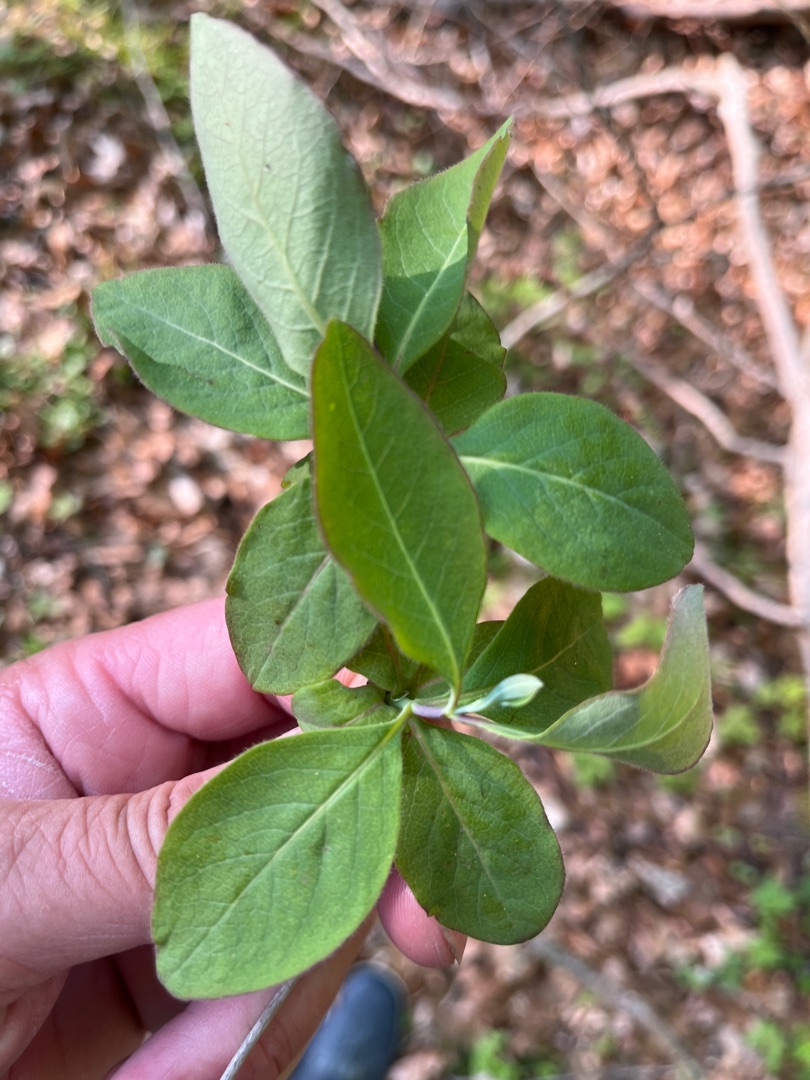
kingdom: Plantae
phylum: Tracheophyta
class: Magnoliopsida
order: Dipsacales
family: Caprifoliaceae
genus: Lonicera
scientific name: Lonicera periclymenum
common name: Almindelig gedeblad
